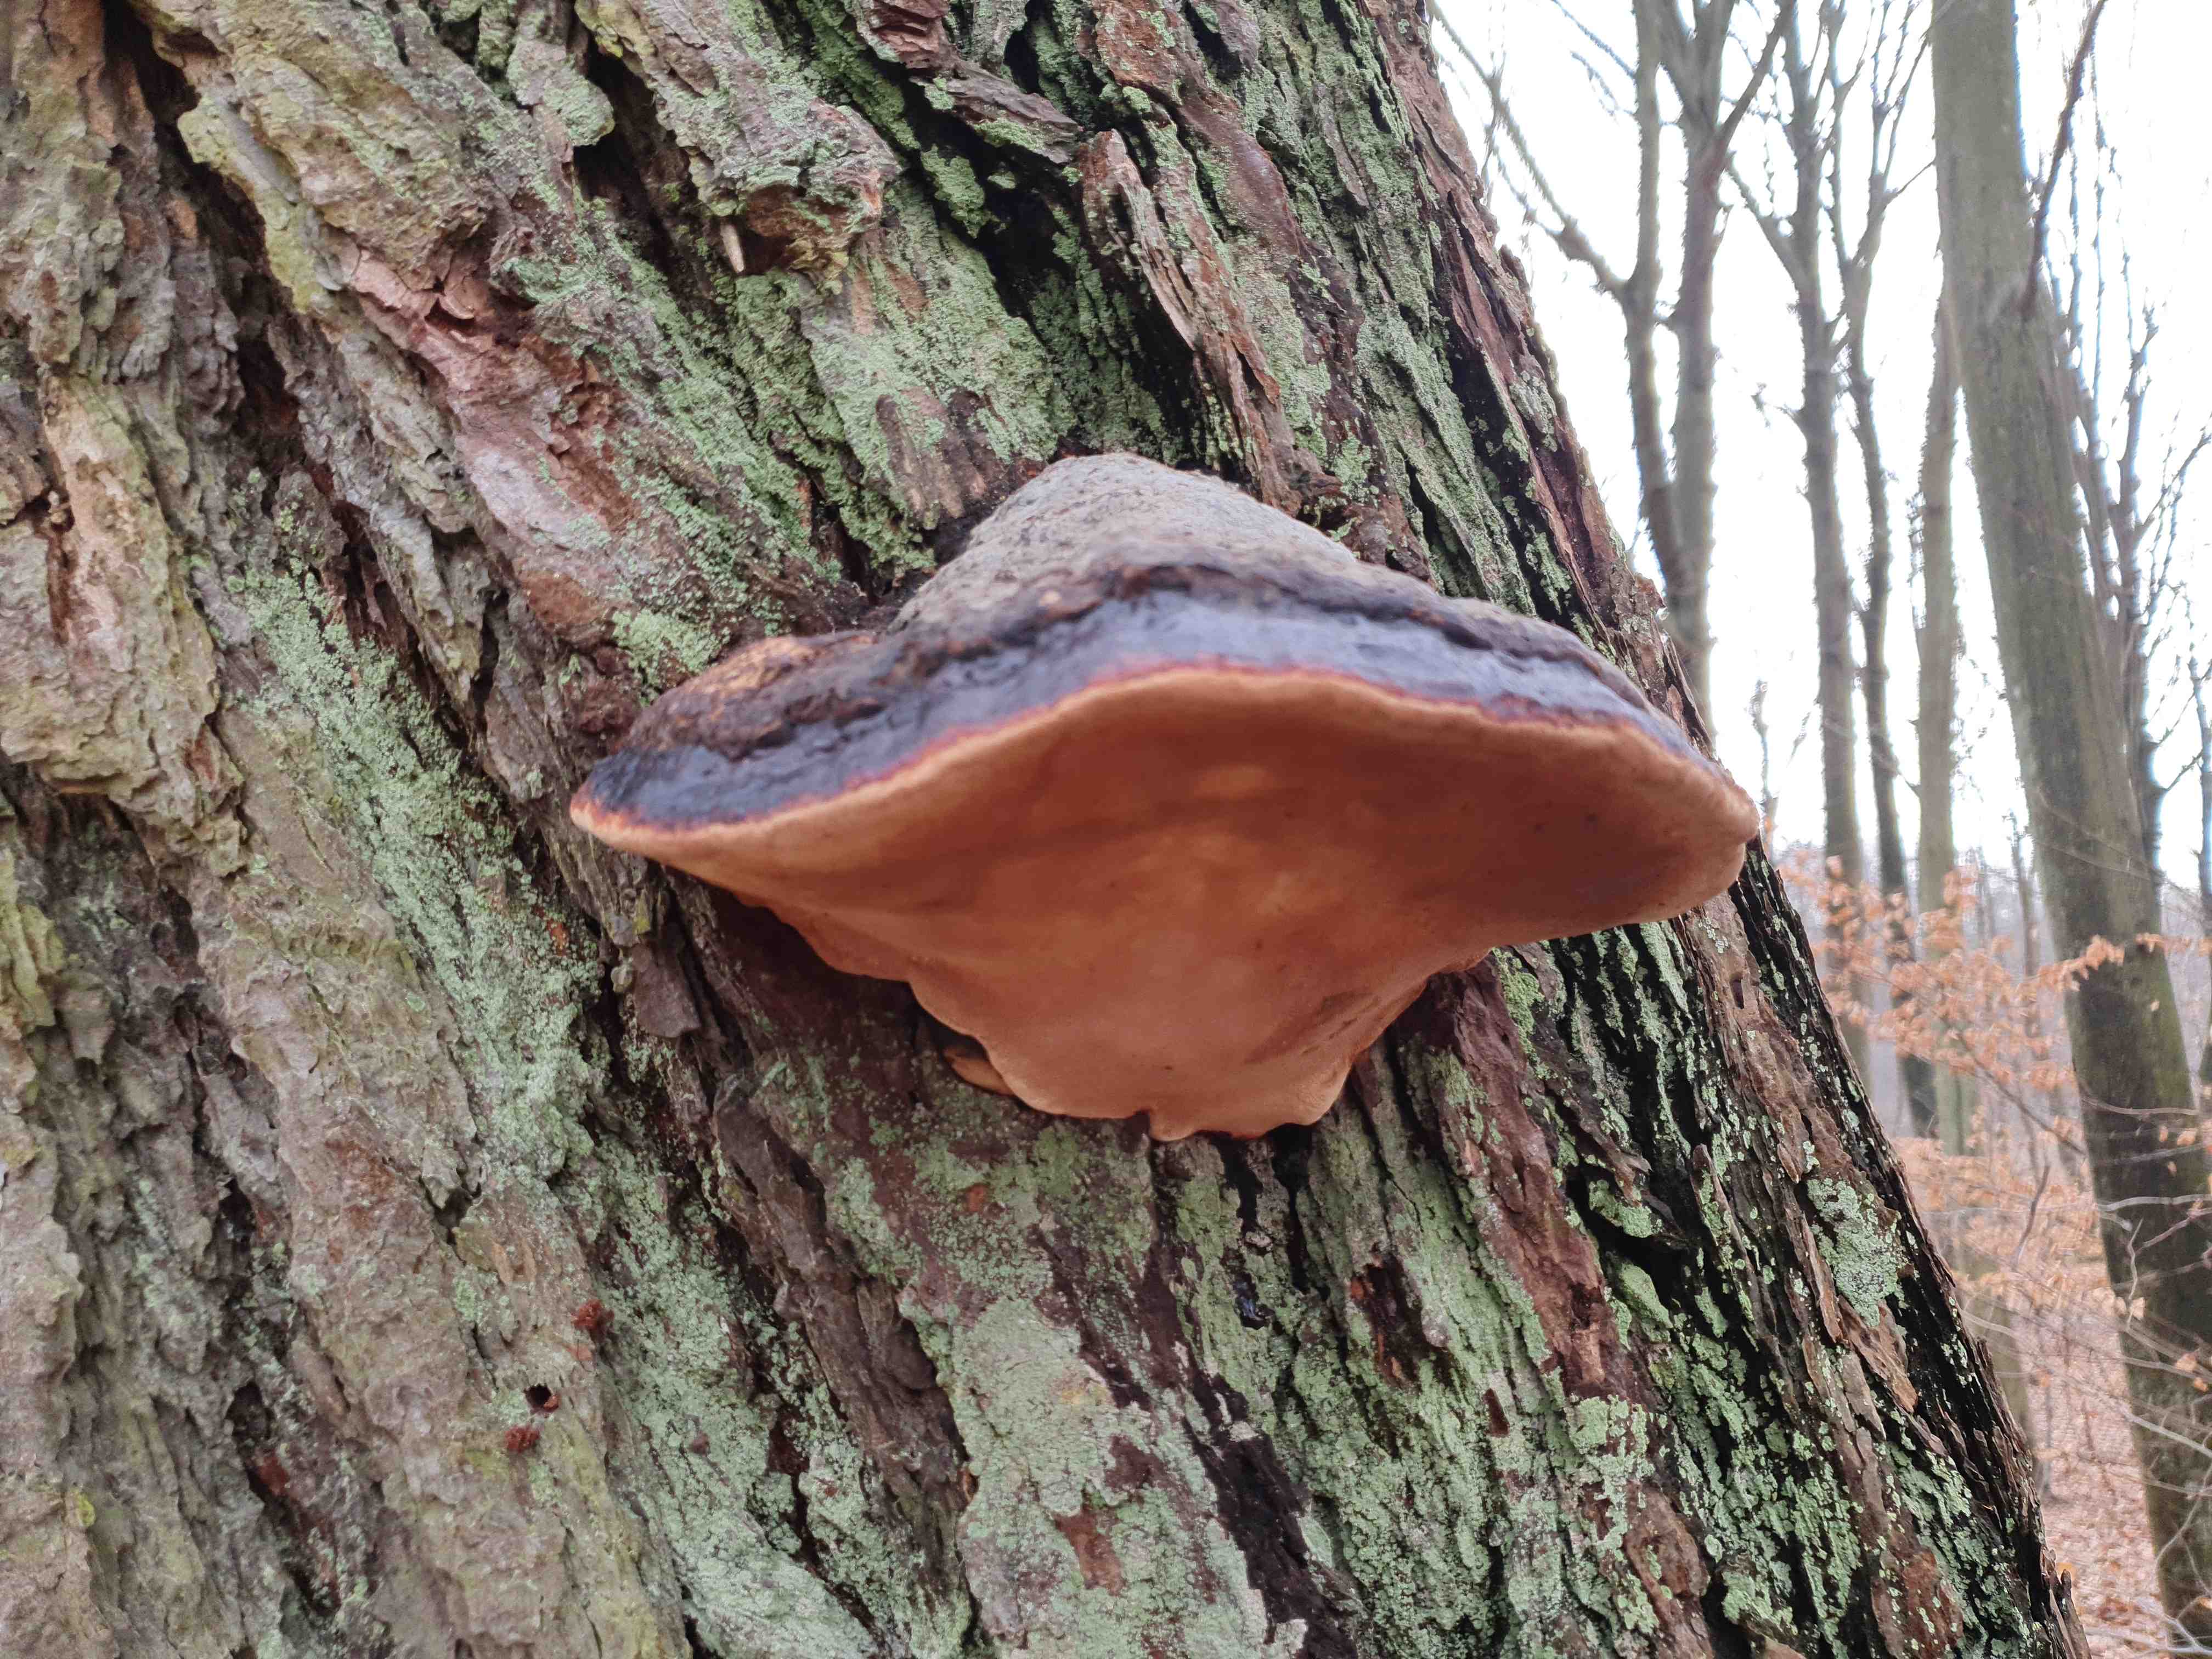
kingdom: Fungi
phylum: Basidiomycota
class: Agaricomycetes
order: Polyporales
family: Fomitopsidaceae
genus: Fomitopsis
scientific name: Fomitopsis pinicola
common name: randbæltet hovporesvamp
